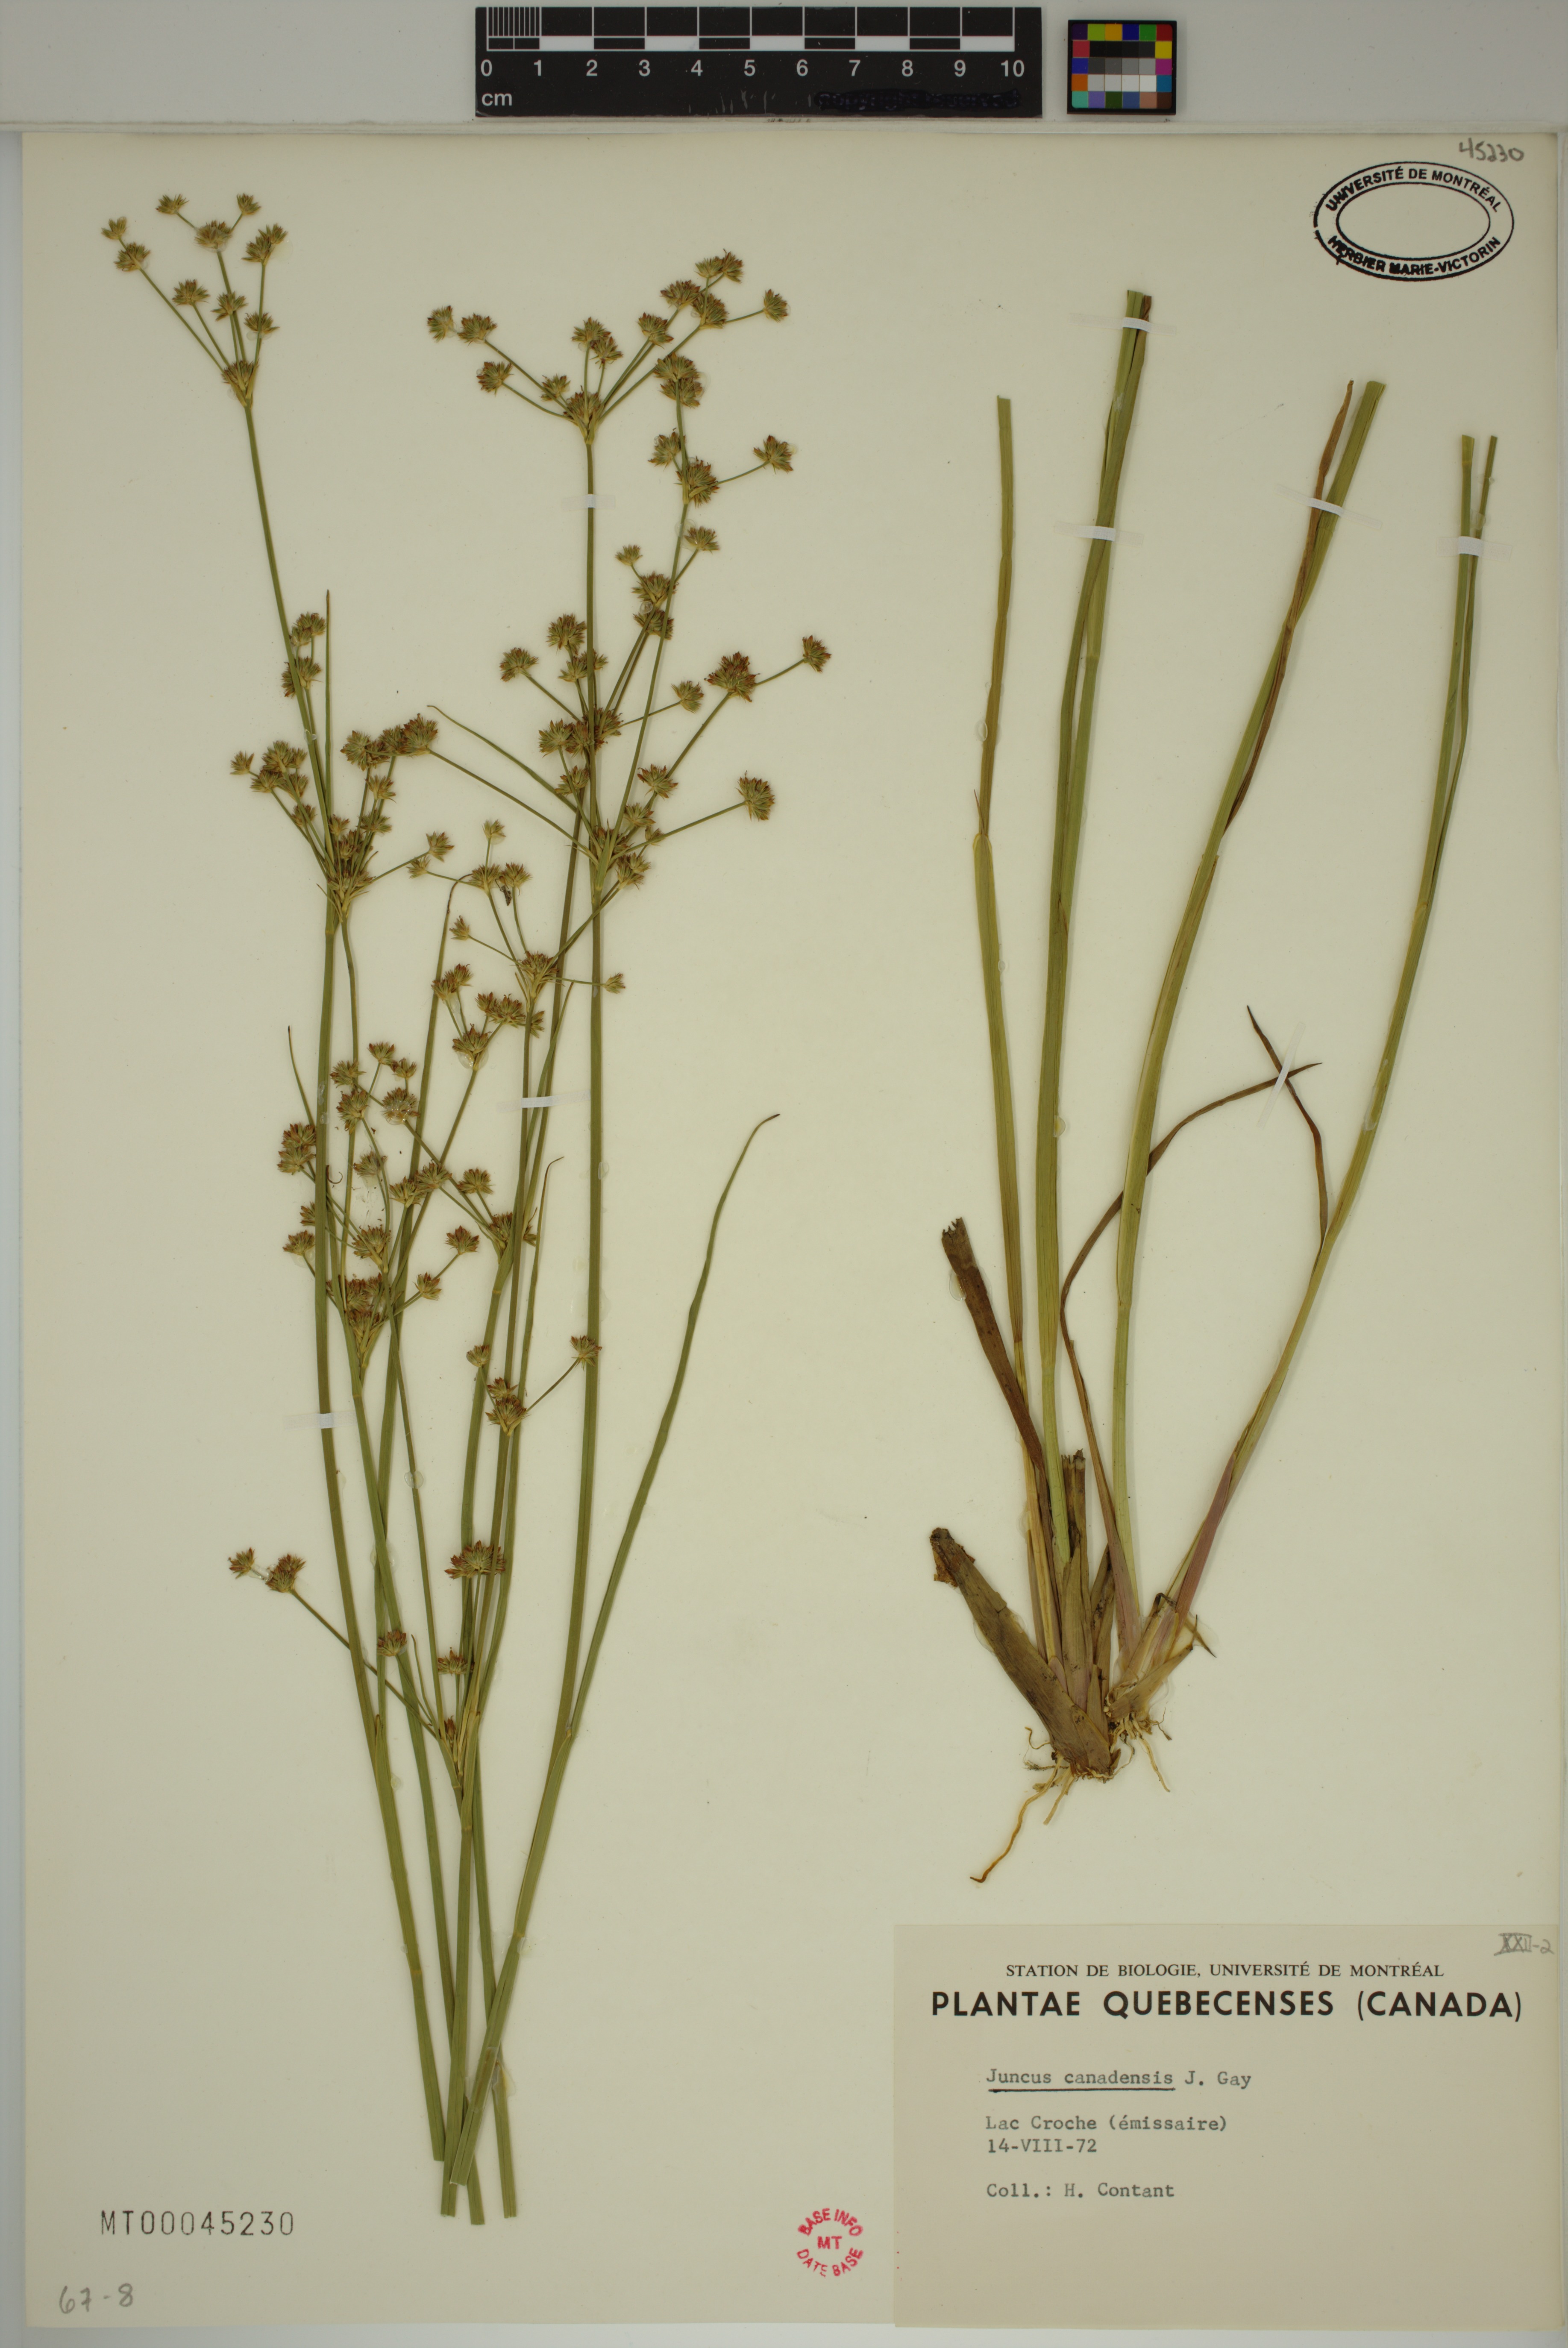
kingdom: Plantae
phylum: Tracheophyta
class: Liliopsida
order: Poales
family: Juncaceae
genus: Juncus
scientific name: Juncus canadensis
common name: Canada rush
